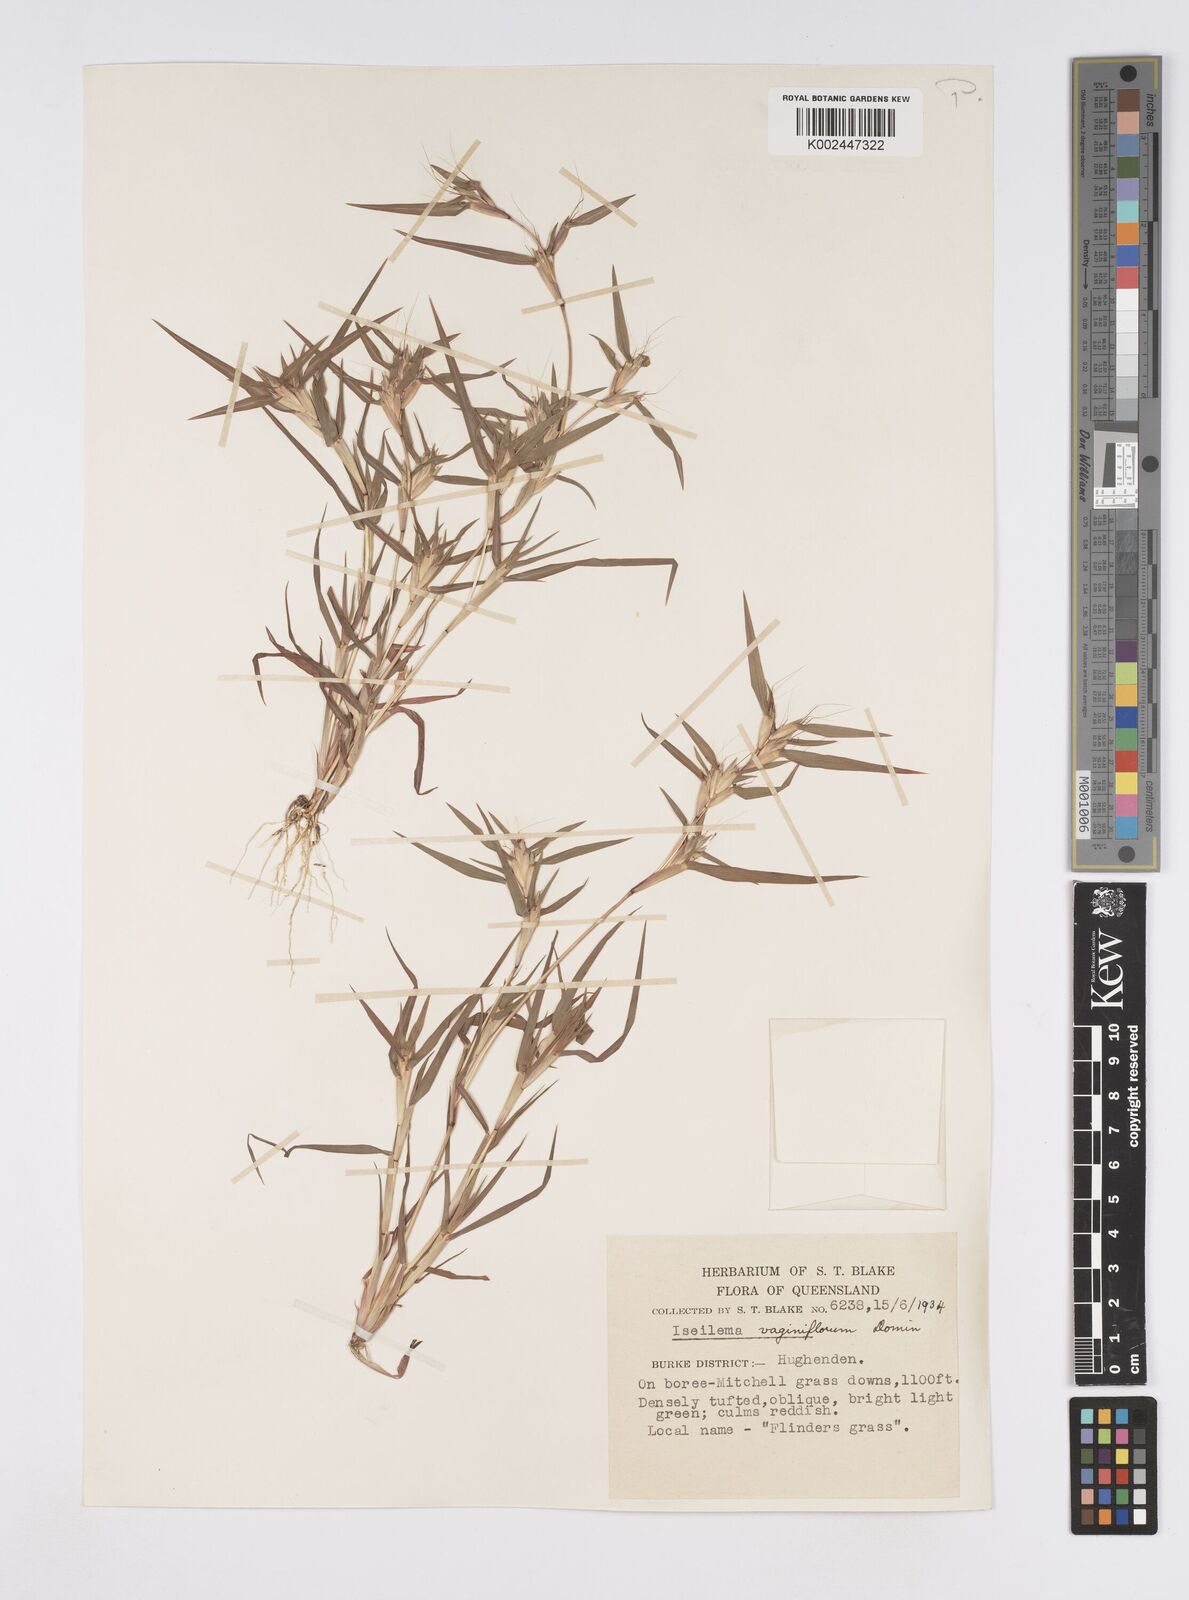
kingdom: Plantae
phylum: Tracheophyta
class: Liliopsida
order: Poales
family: Poaceae
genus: Iseilema
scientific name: Iseilema vaginiflorum
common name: Red flinders grass
